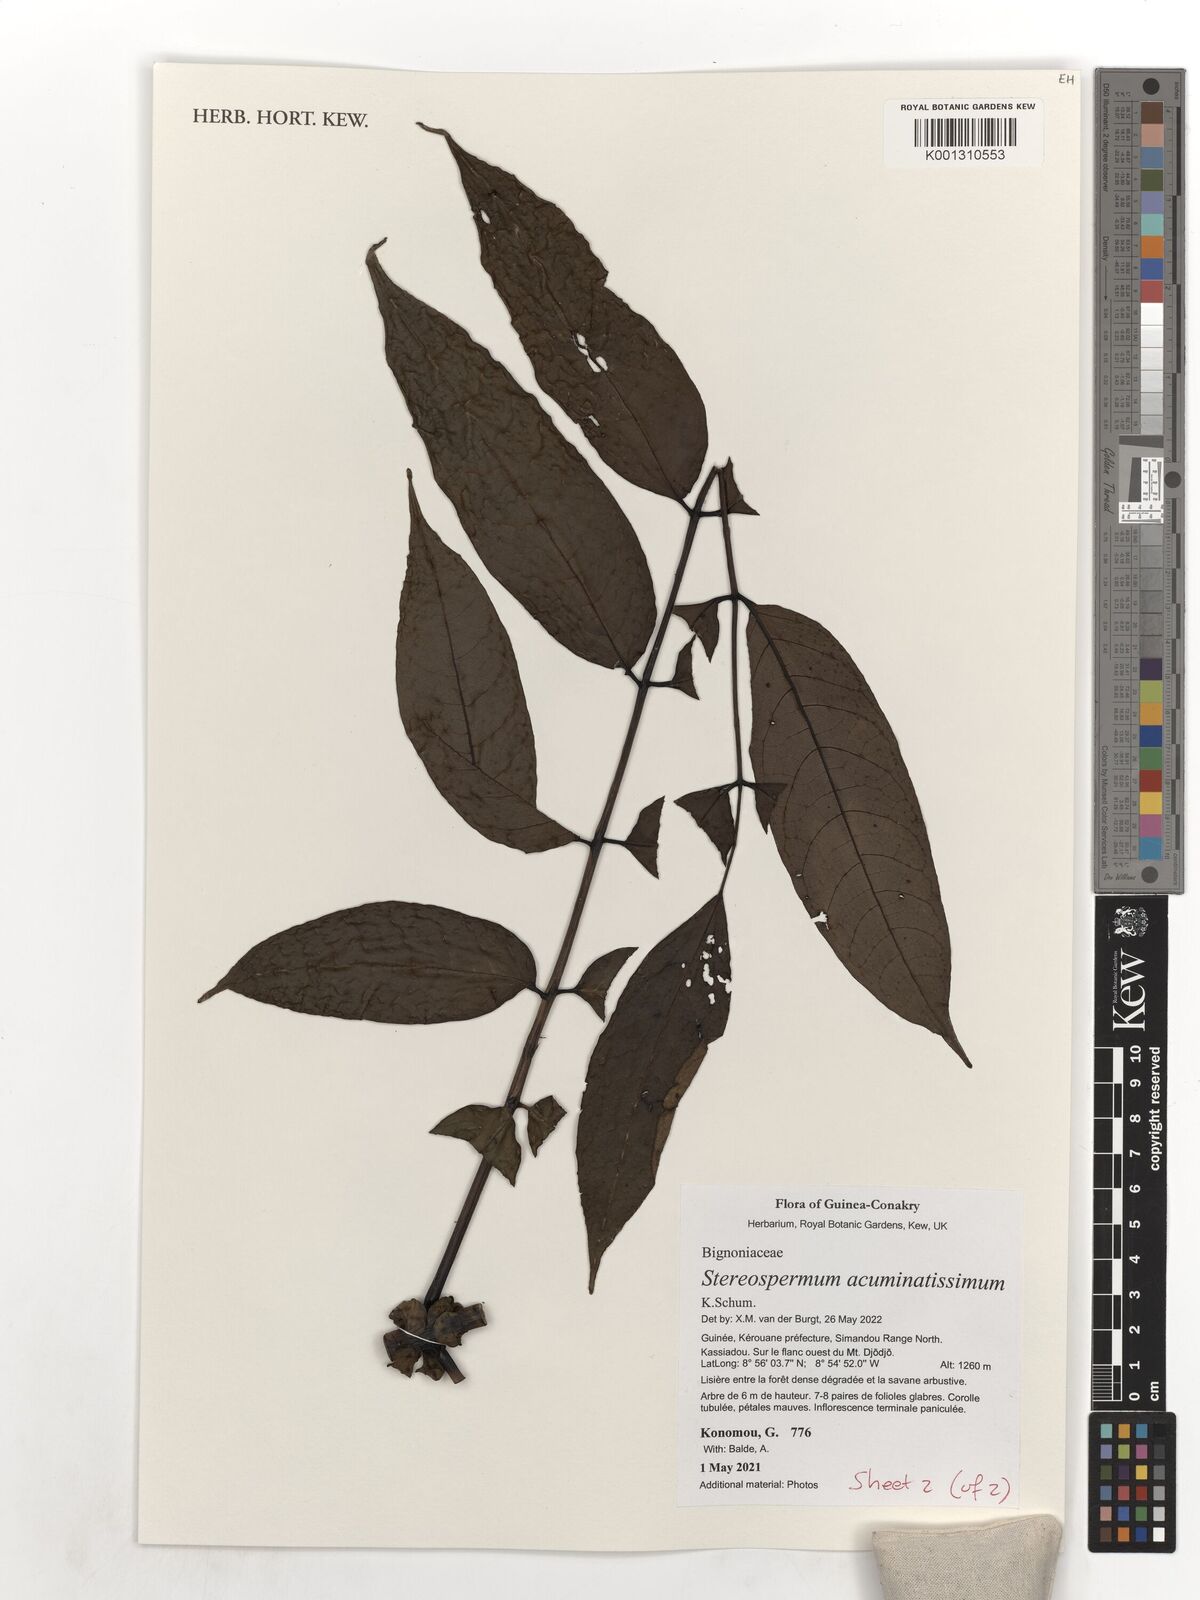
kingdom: Plantae
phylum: Tracheophyta
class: Magnoliopsida
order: Lamiales
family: Bignoniaceae
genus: Stereospermum
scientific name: Stereospermum acuminatissimum
